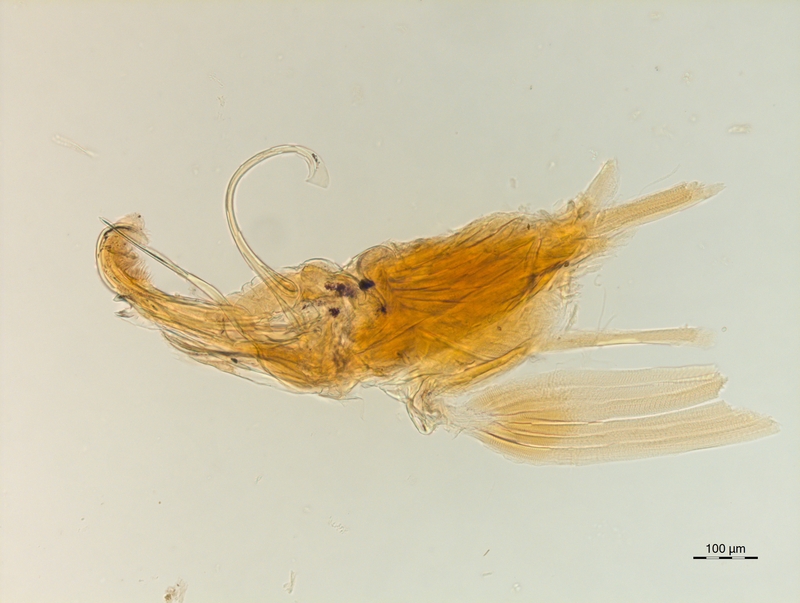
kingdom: Animalia
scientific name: Animalia
